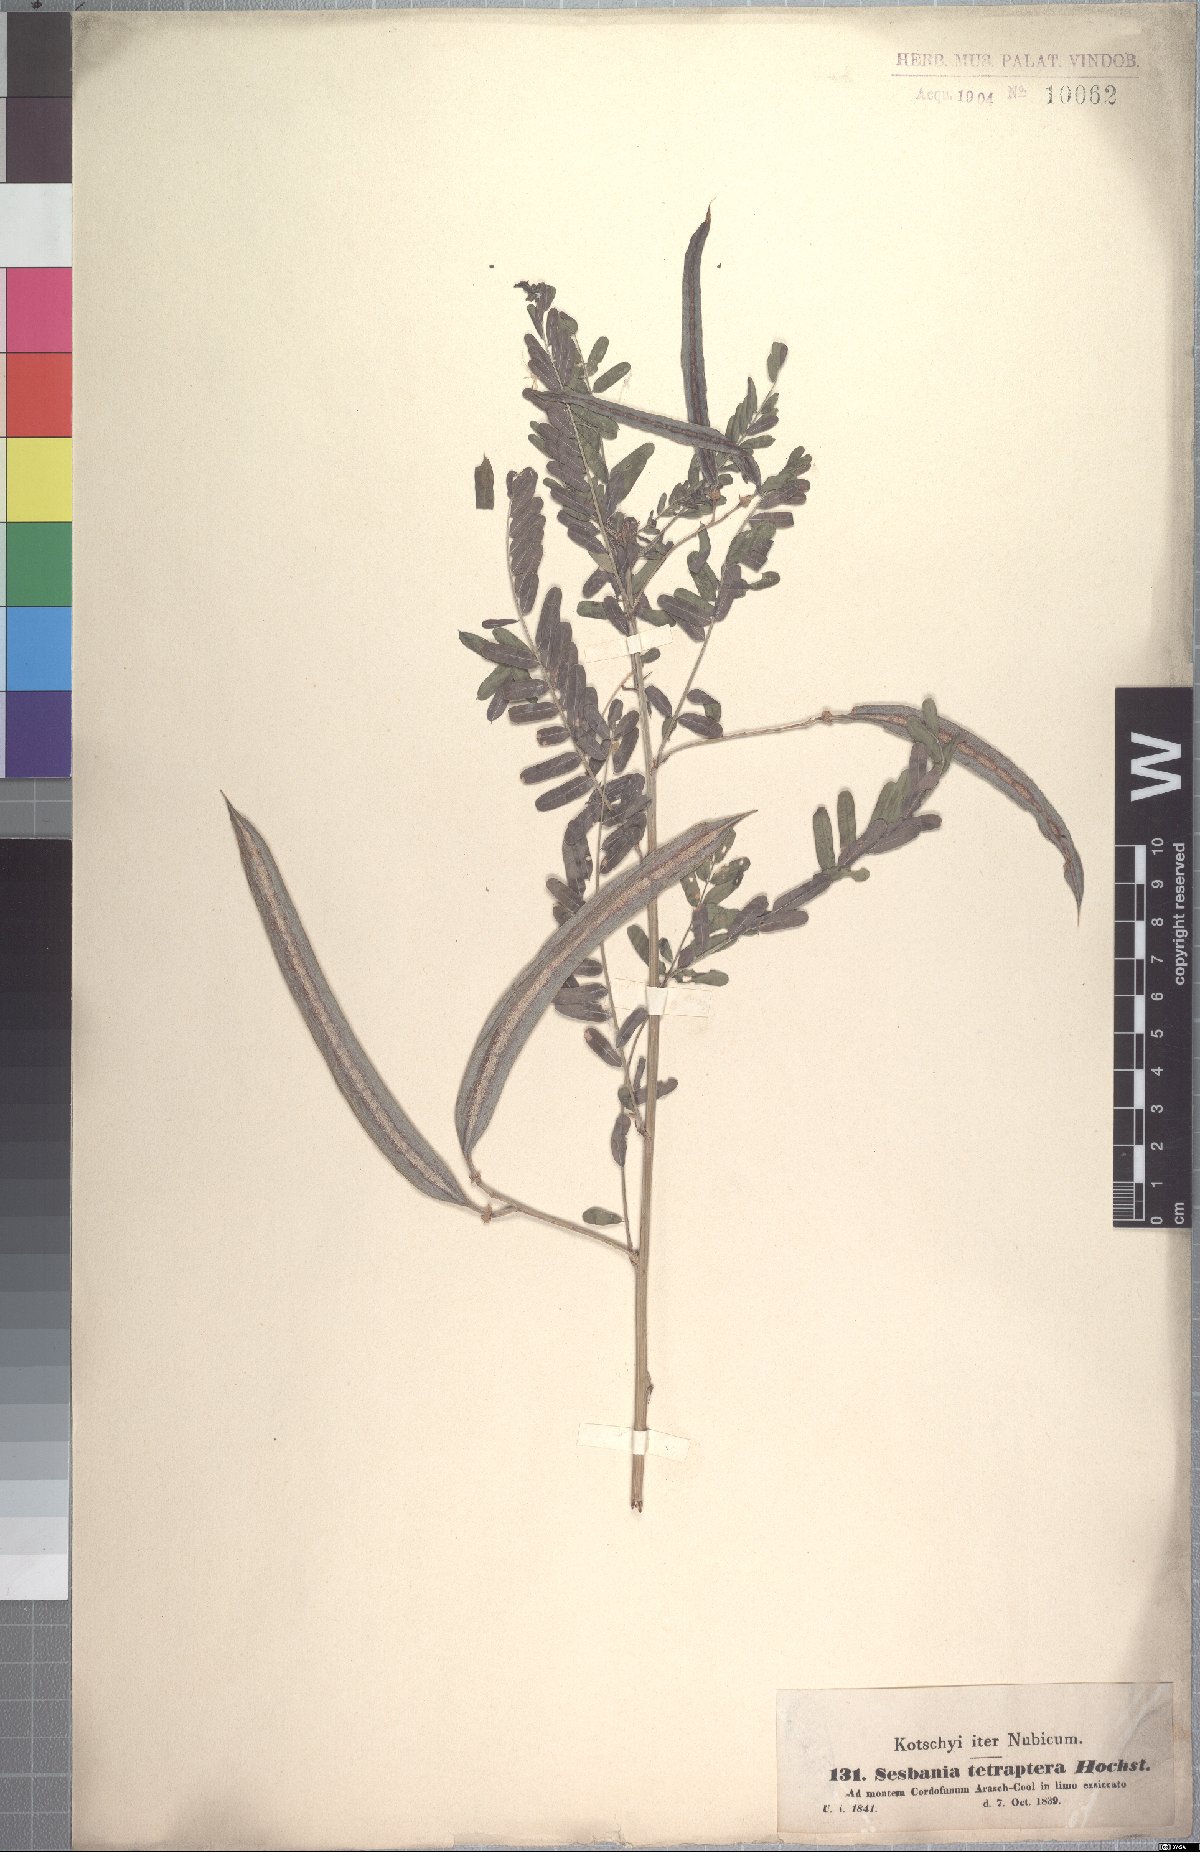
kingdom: Plantae
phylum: Tracheophyta
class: Magnoliopsida
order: Fabales
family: Fabaceae
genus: Sesbania
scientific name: Sesbania tetraptera
